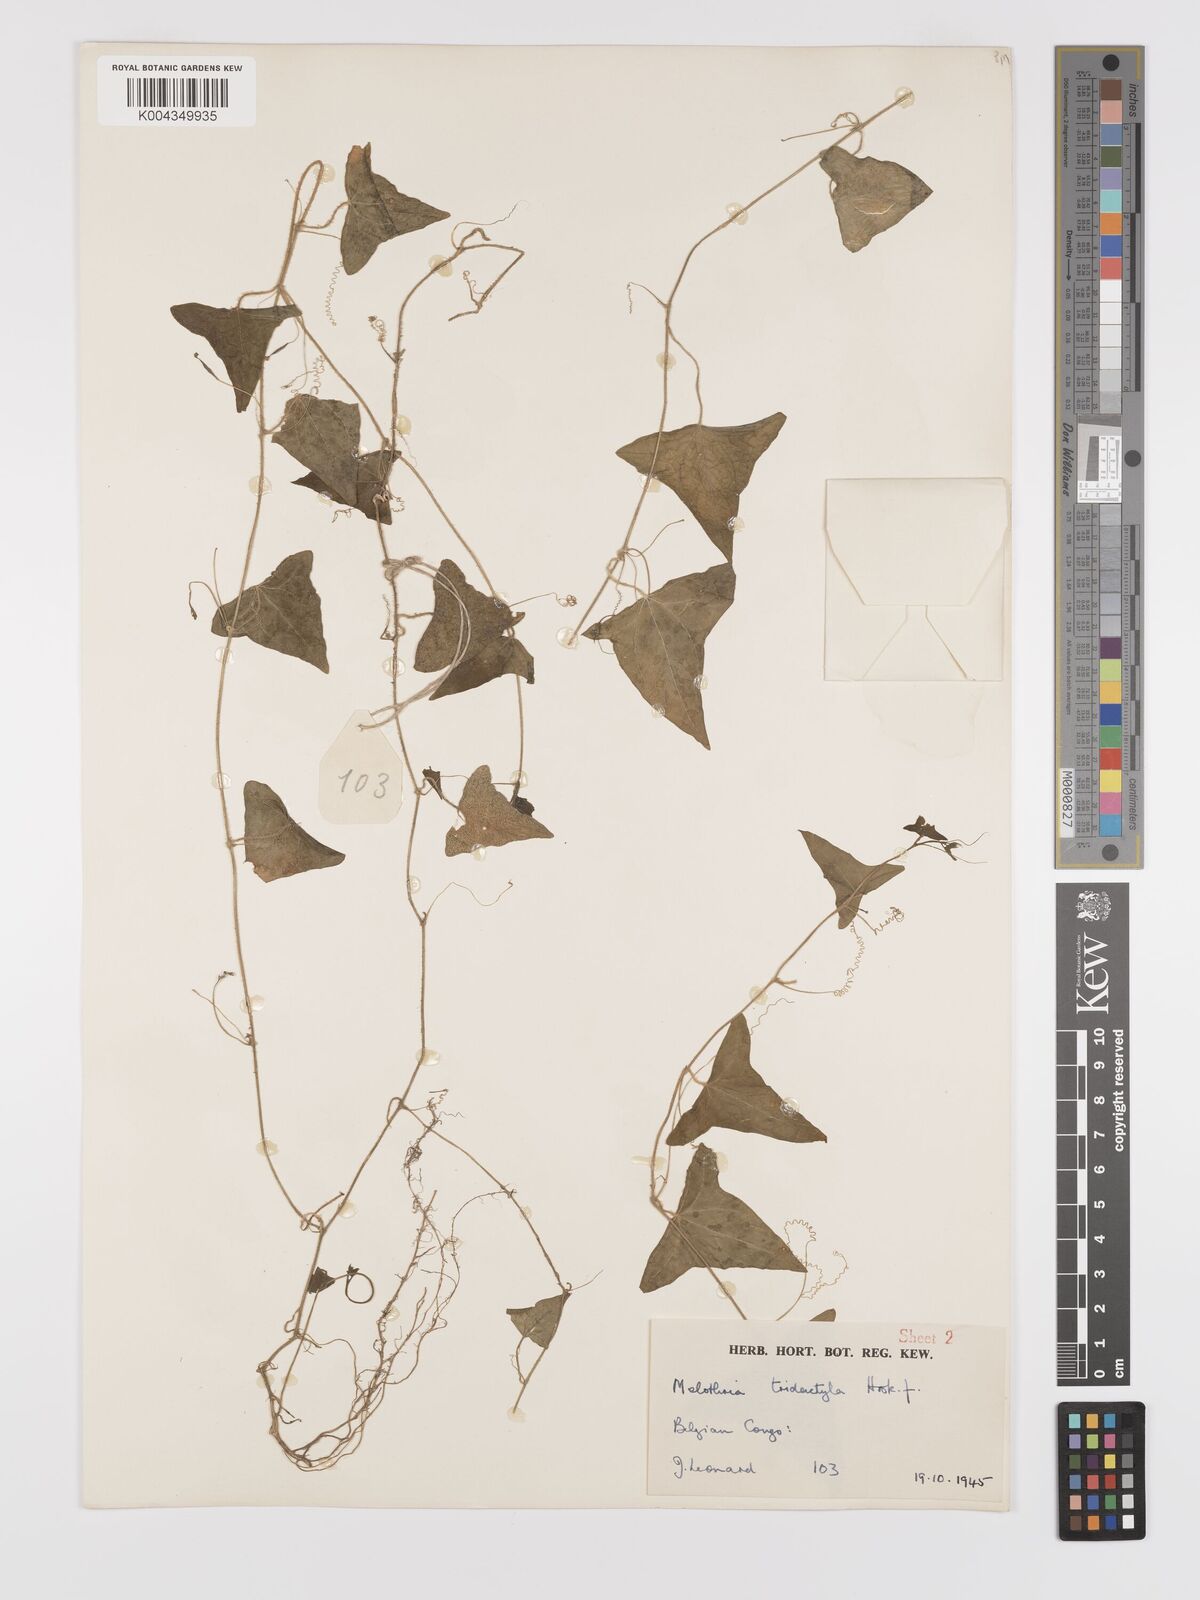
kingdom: Plantae
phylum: Tracheophyta
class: Magnoliopsida
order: Cucurbitales
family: Cucurbitaceae
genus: Zehneria
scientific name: Zehneria thwaitesii
